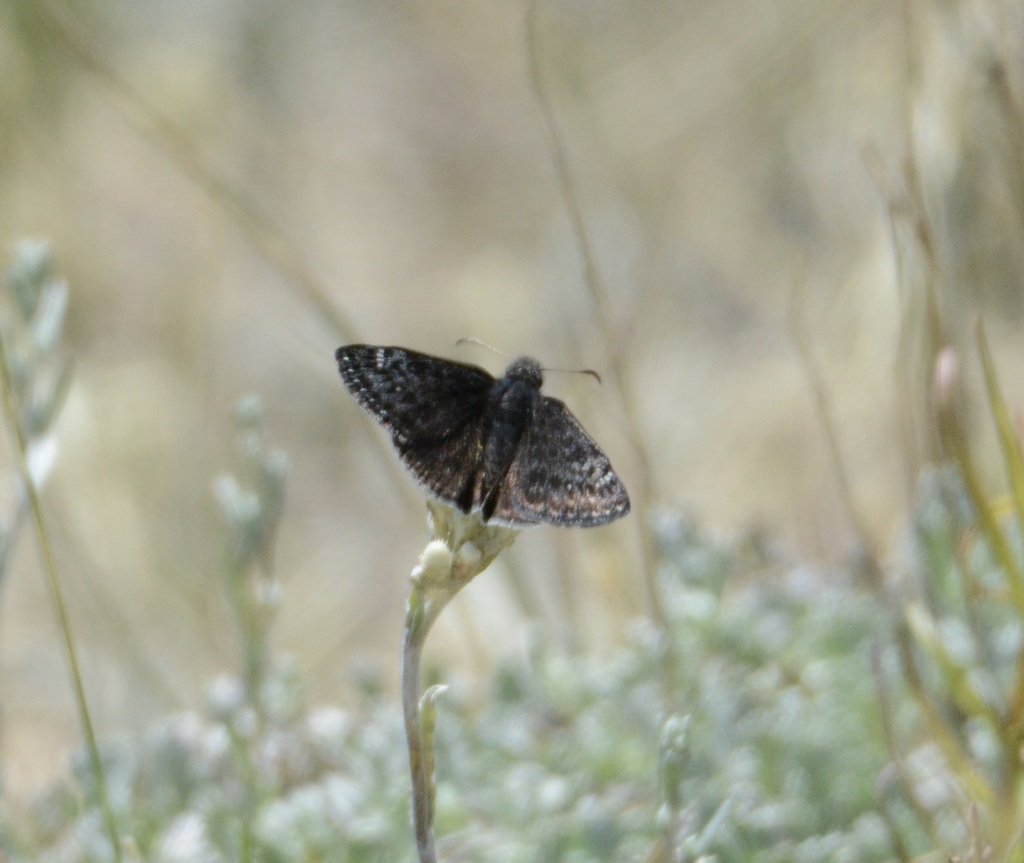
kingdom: Animalia
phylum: Arthropoda
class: Insecta
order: Lepidoptera
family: Hesperiidae
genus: Gesta
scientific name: Gesta
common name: Persius Duskywing
